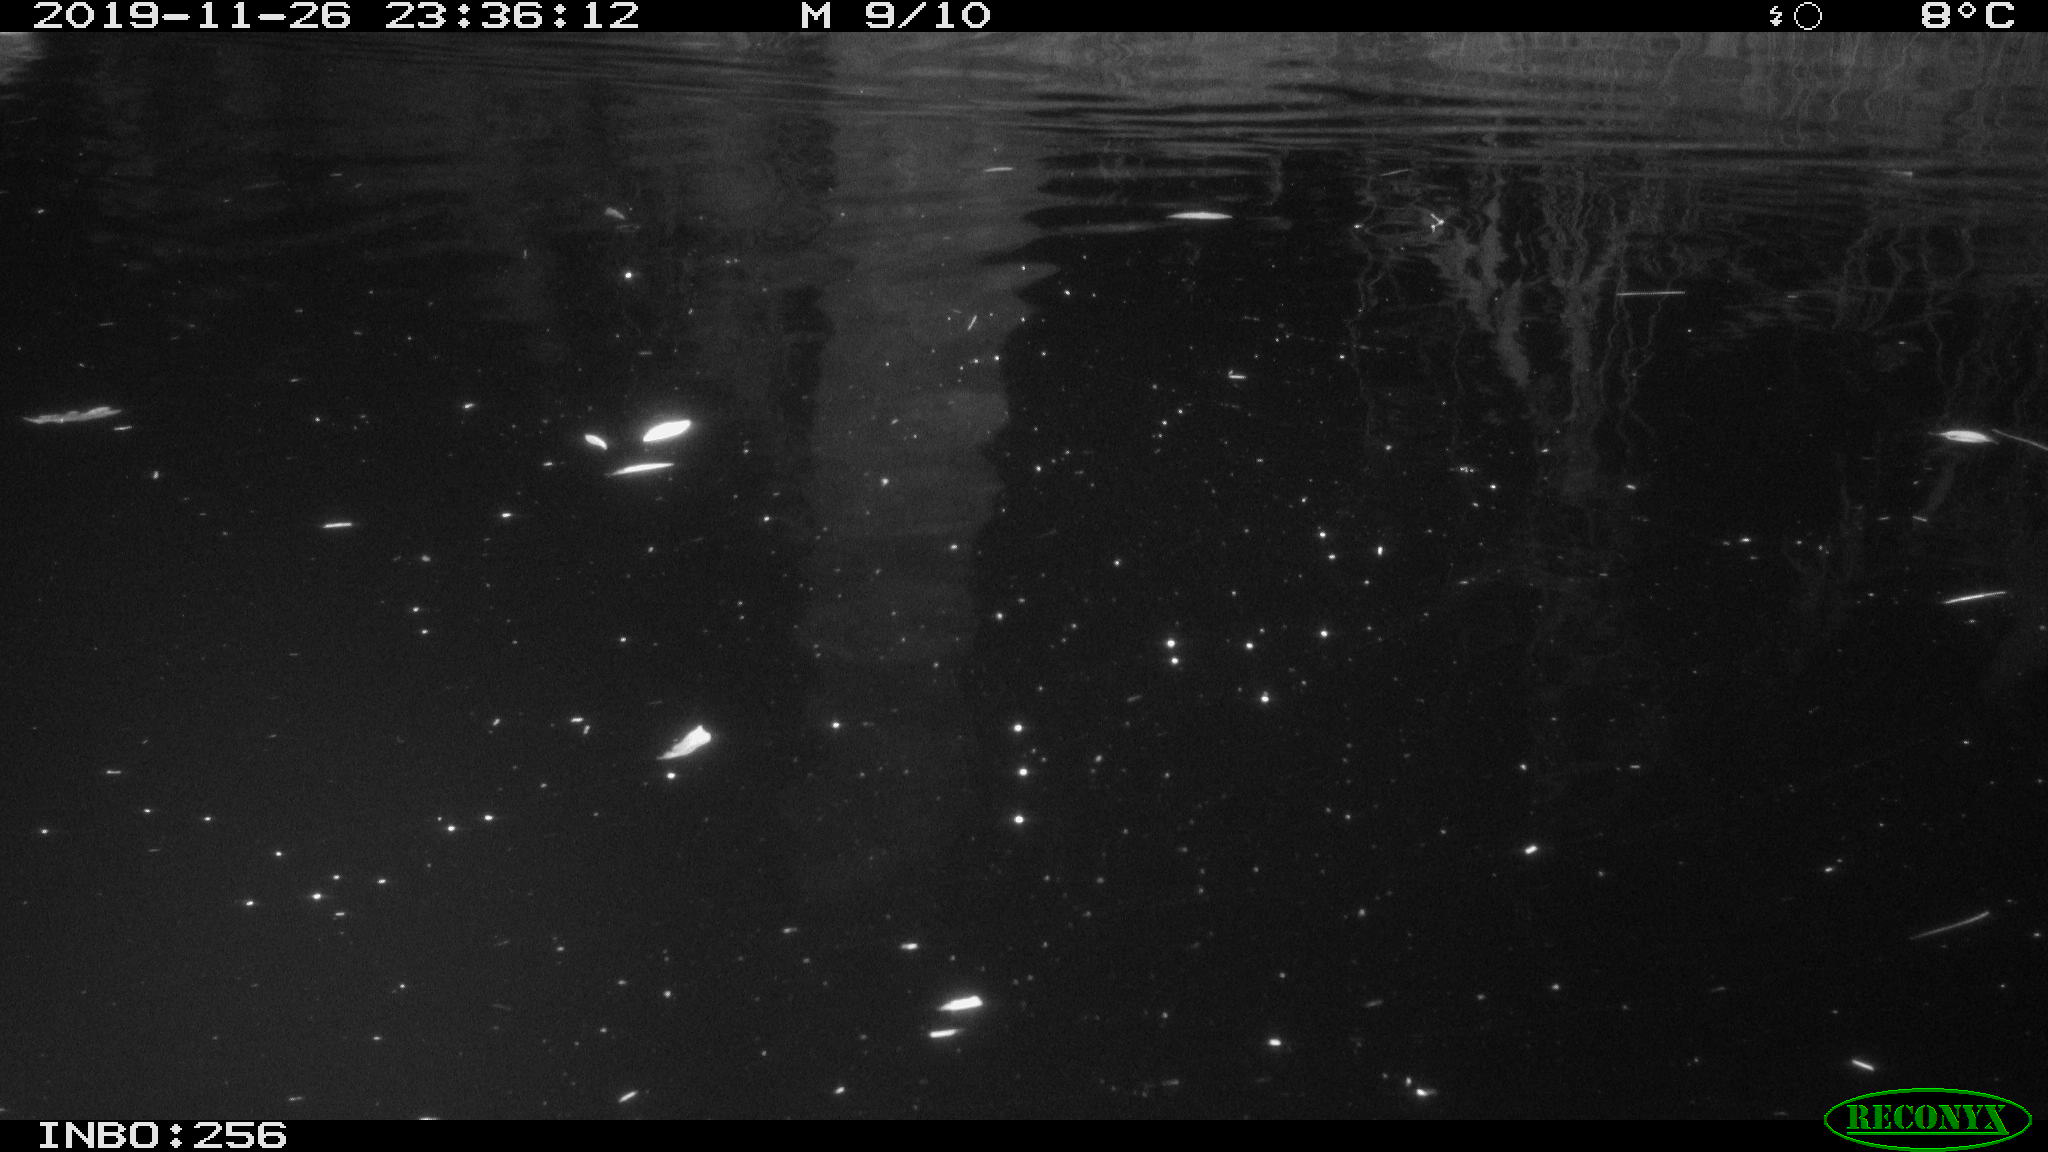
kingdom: Animalia
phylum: Chordata
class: Aves
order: Anseriformes
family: Anatidae
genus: Anas
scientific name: Anas platyrhynchos
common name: Mallard
